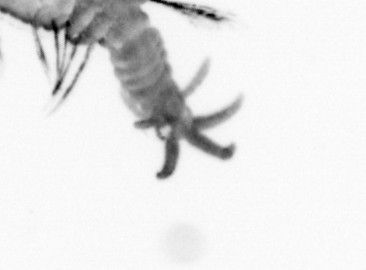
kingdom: Animalia
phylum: Annelida
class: Polychaeta
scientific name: Polychaeta
